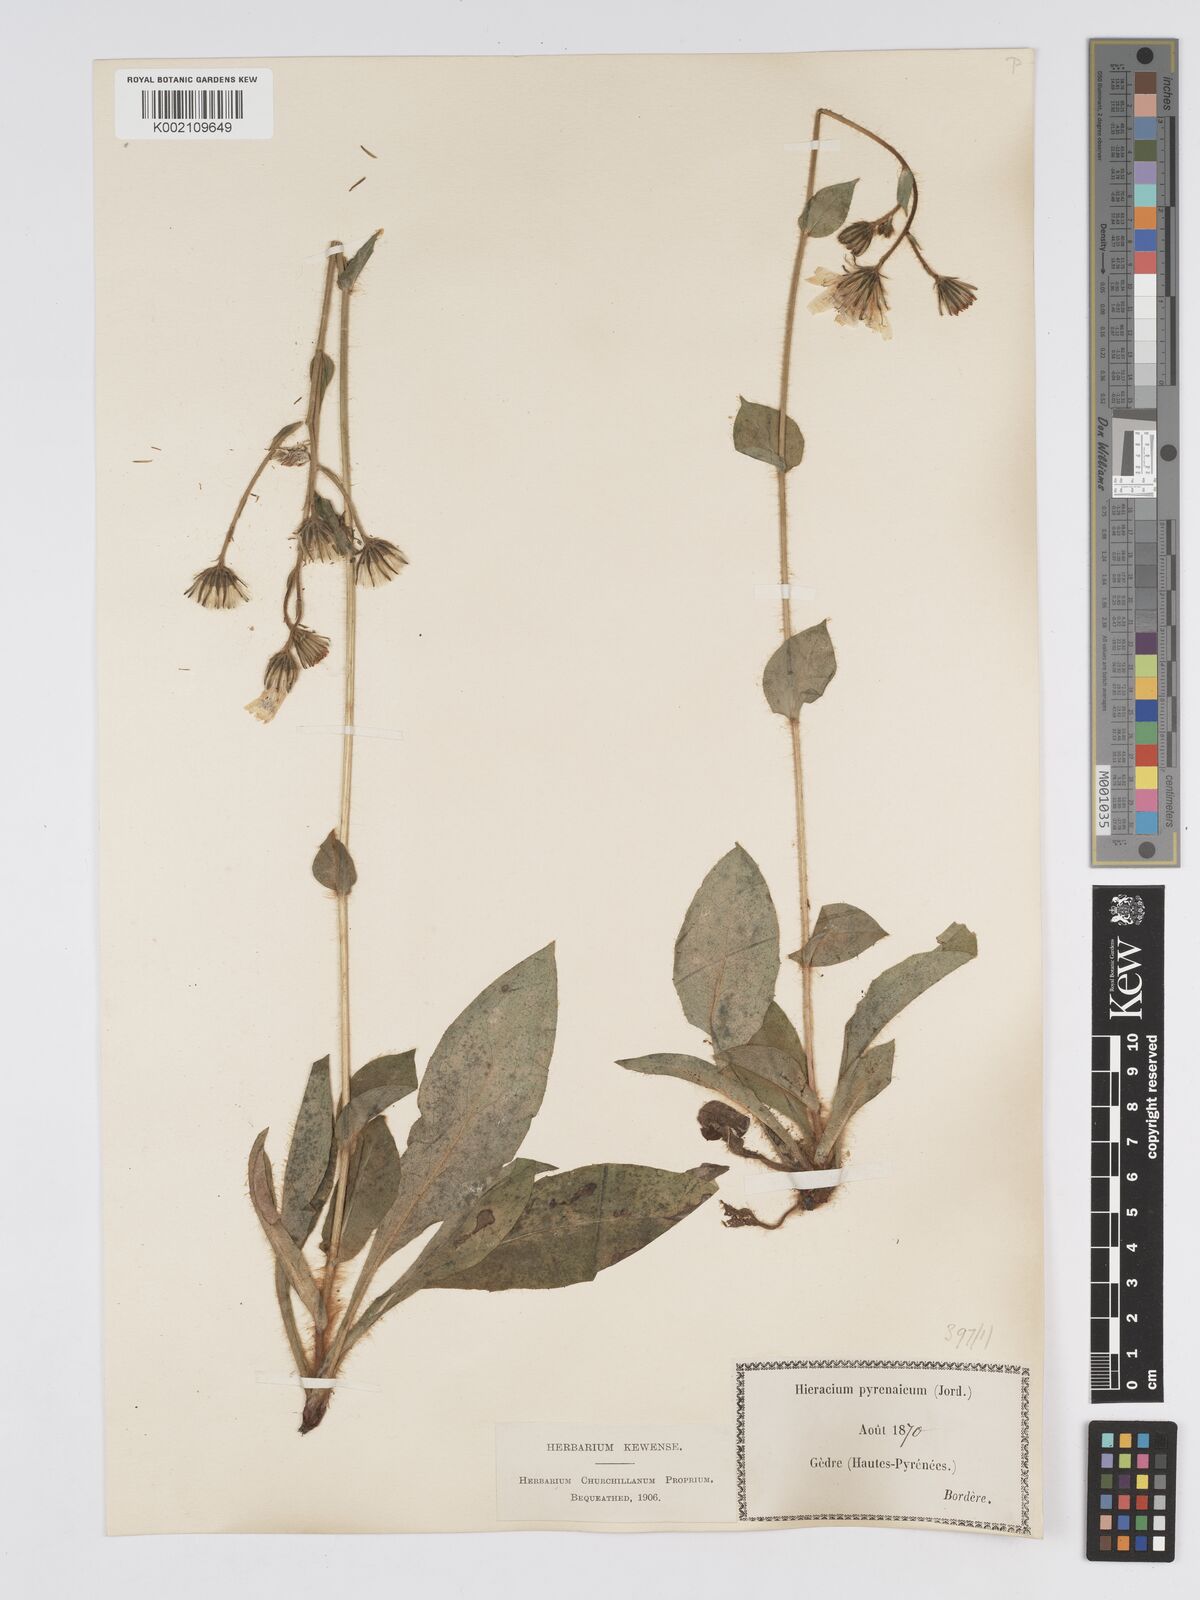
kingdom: Plantae
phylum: Tracheophyta
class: Magnoliopsida
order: Asterales
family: Asteraceae
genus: Hieracium
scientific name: Hieracium nobile
